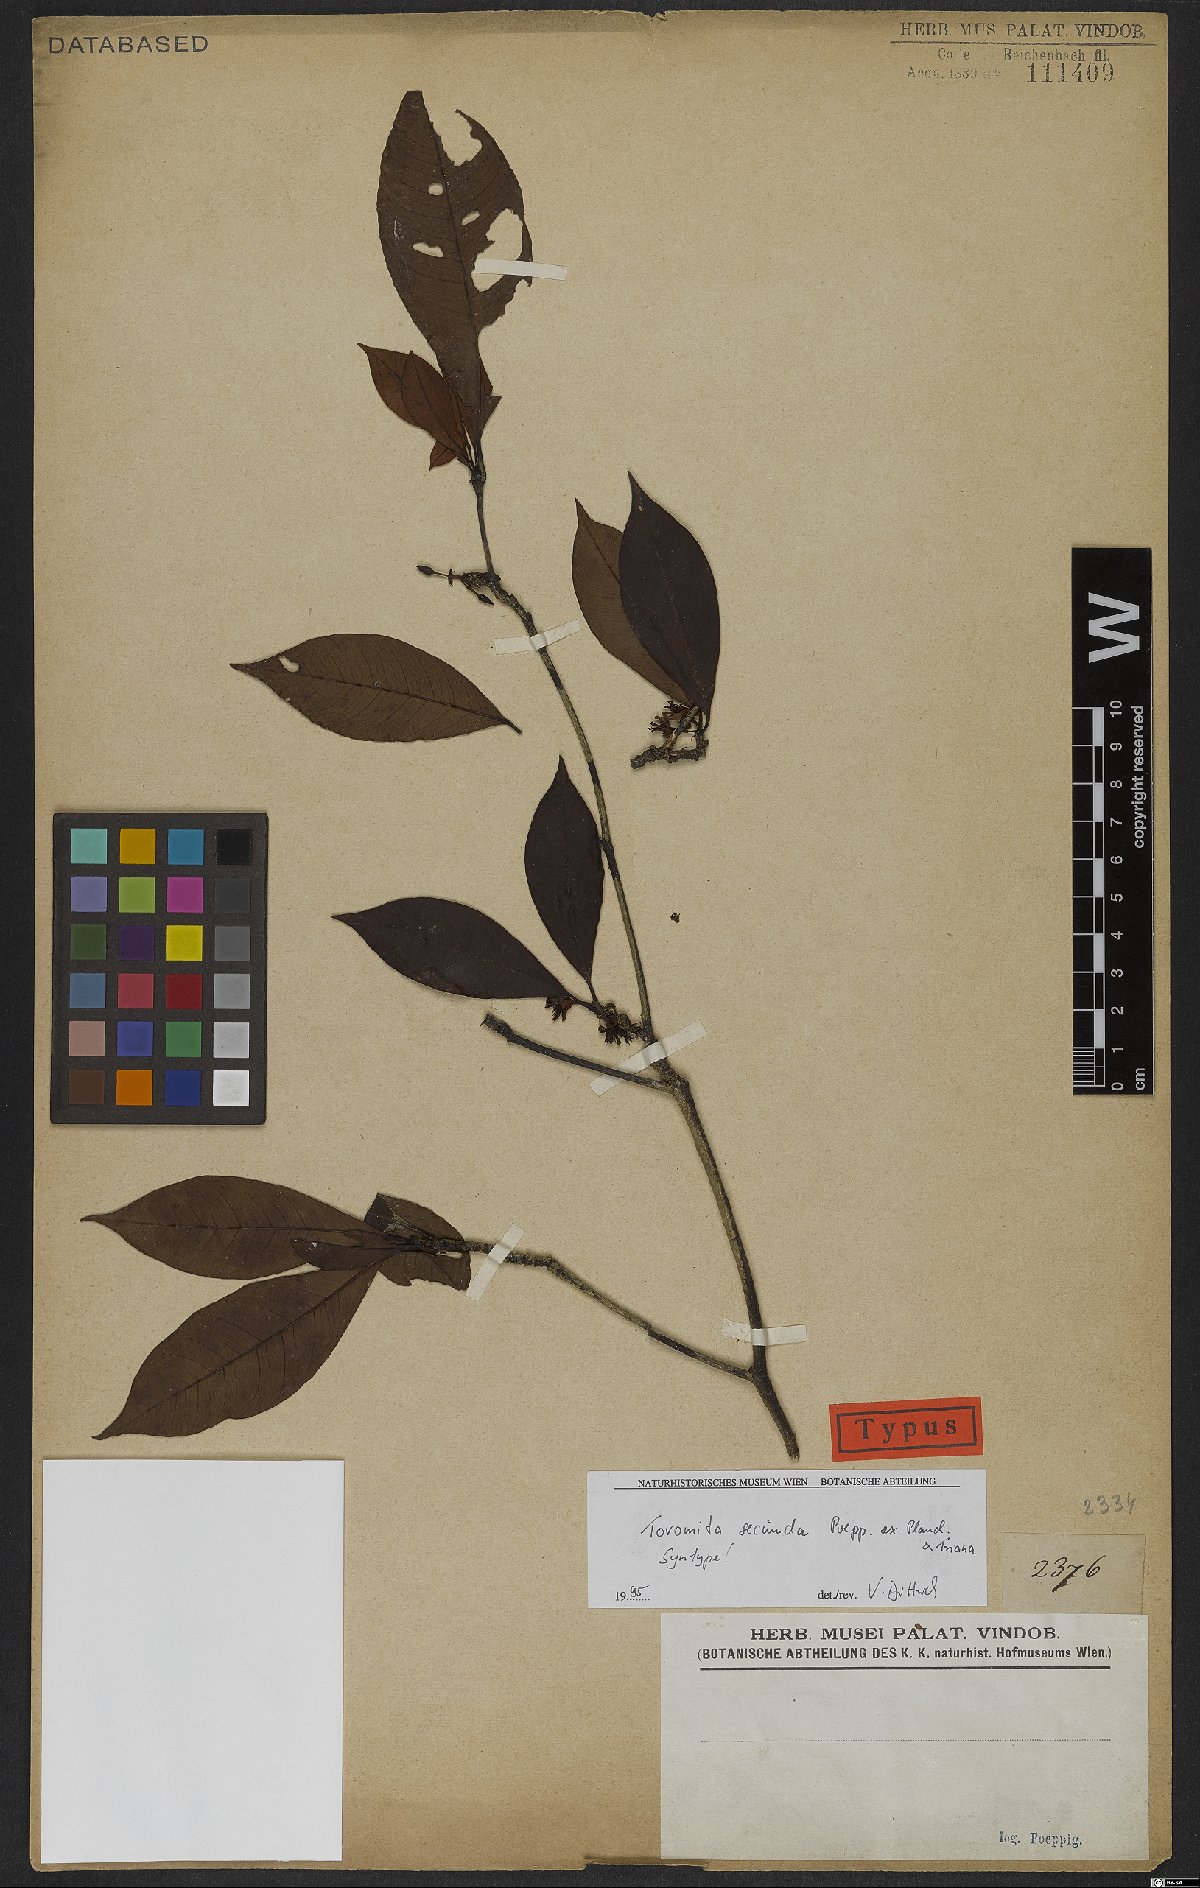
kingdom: Plantae
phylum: Tracheophyta
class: Magnoliopsida
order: Malpighiales
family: Clusiaceae
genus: Tovomita
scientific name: Tovomita secunda
